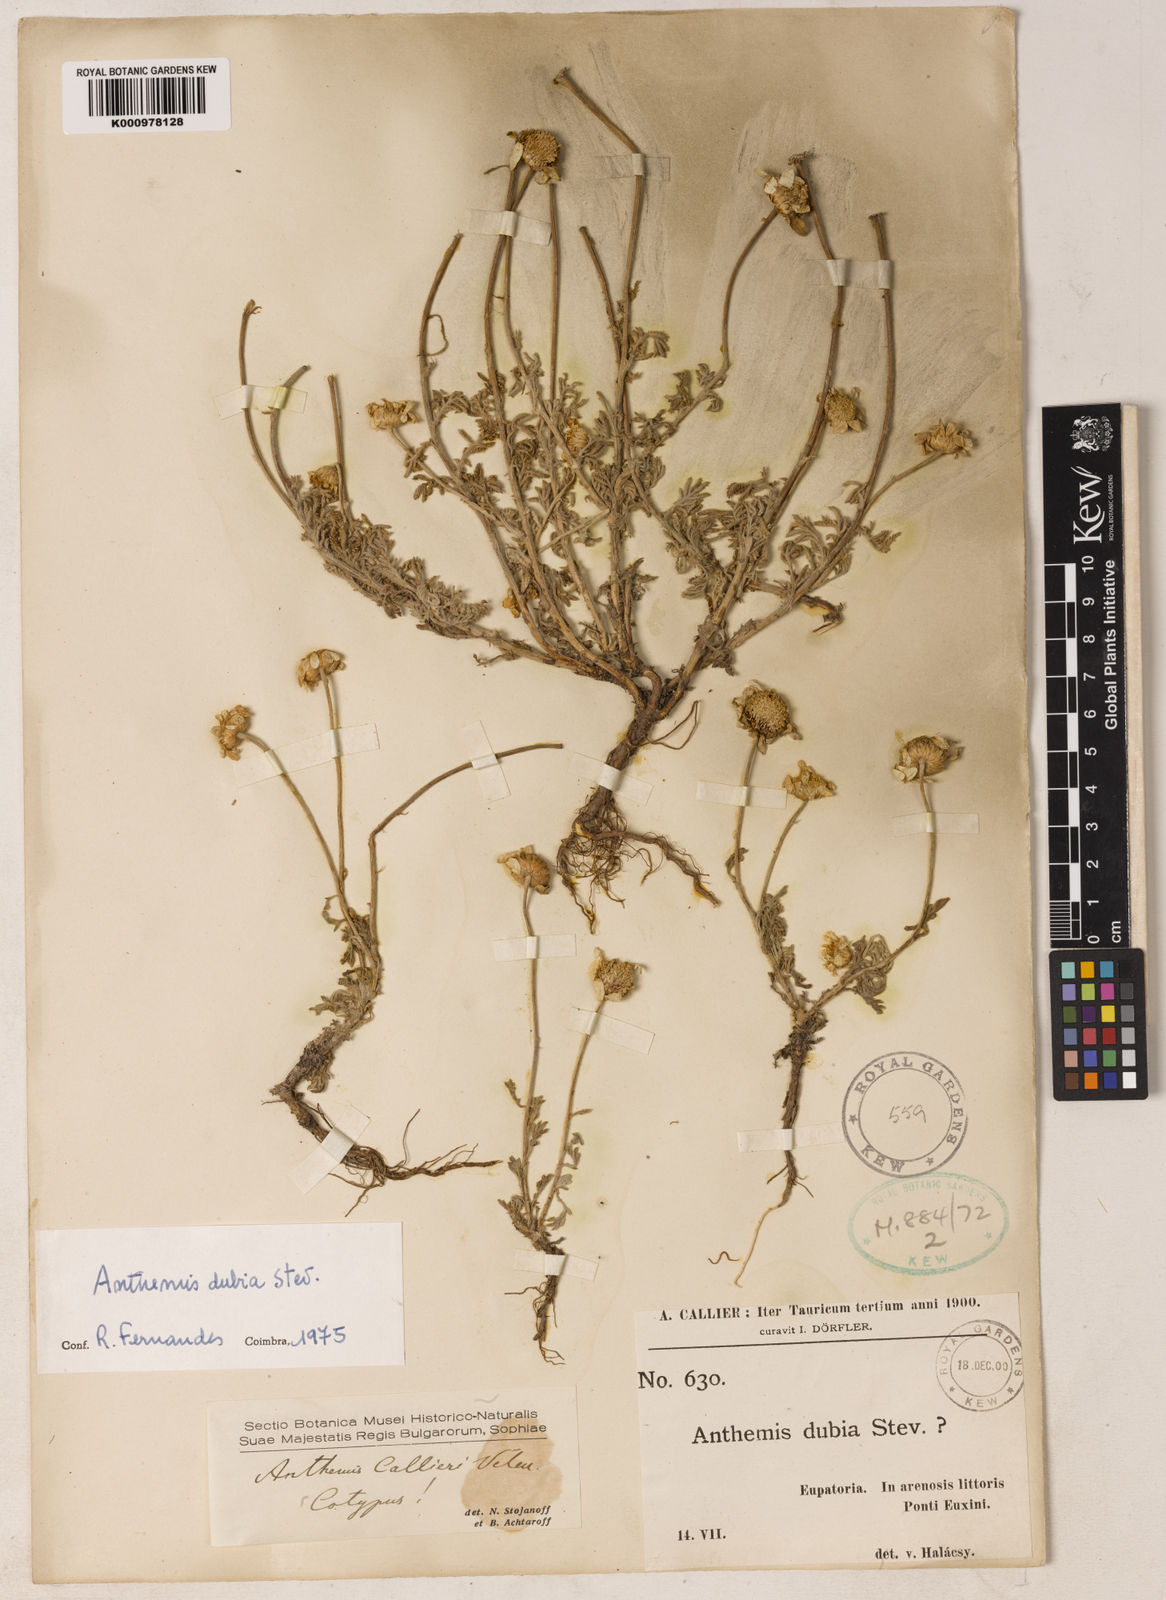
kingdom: Plantae
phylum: Tracheophyta
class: Magnoliopsida
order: Asterales
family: Asteraceae
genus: Cota
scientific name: Cota dubia
